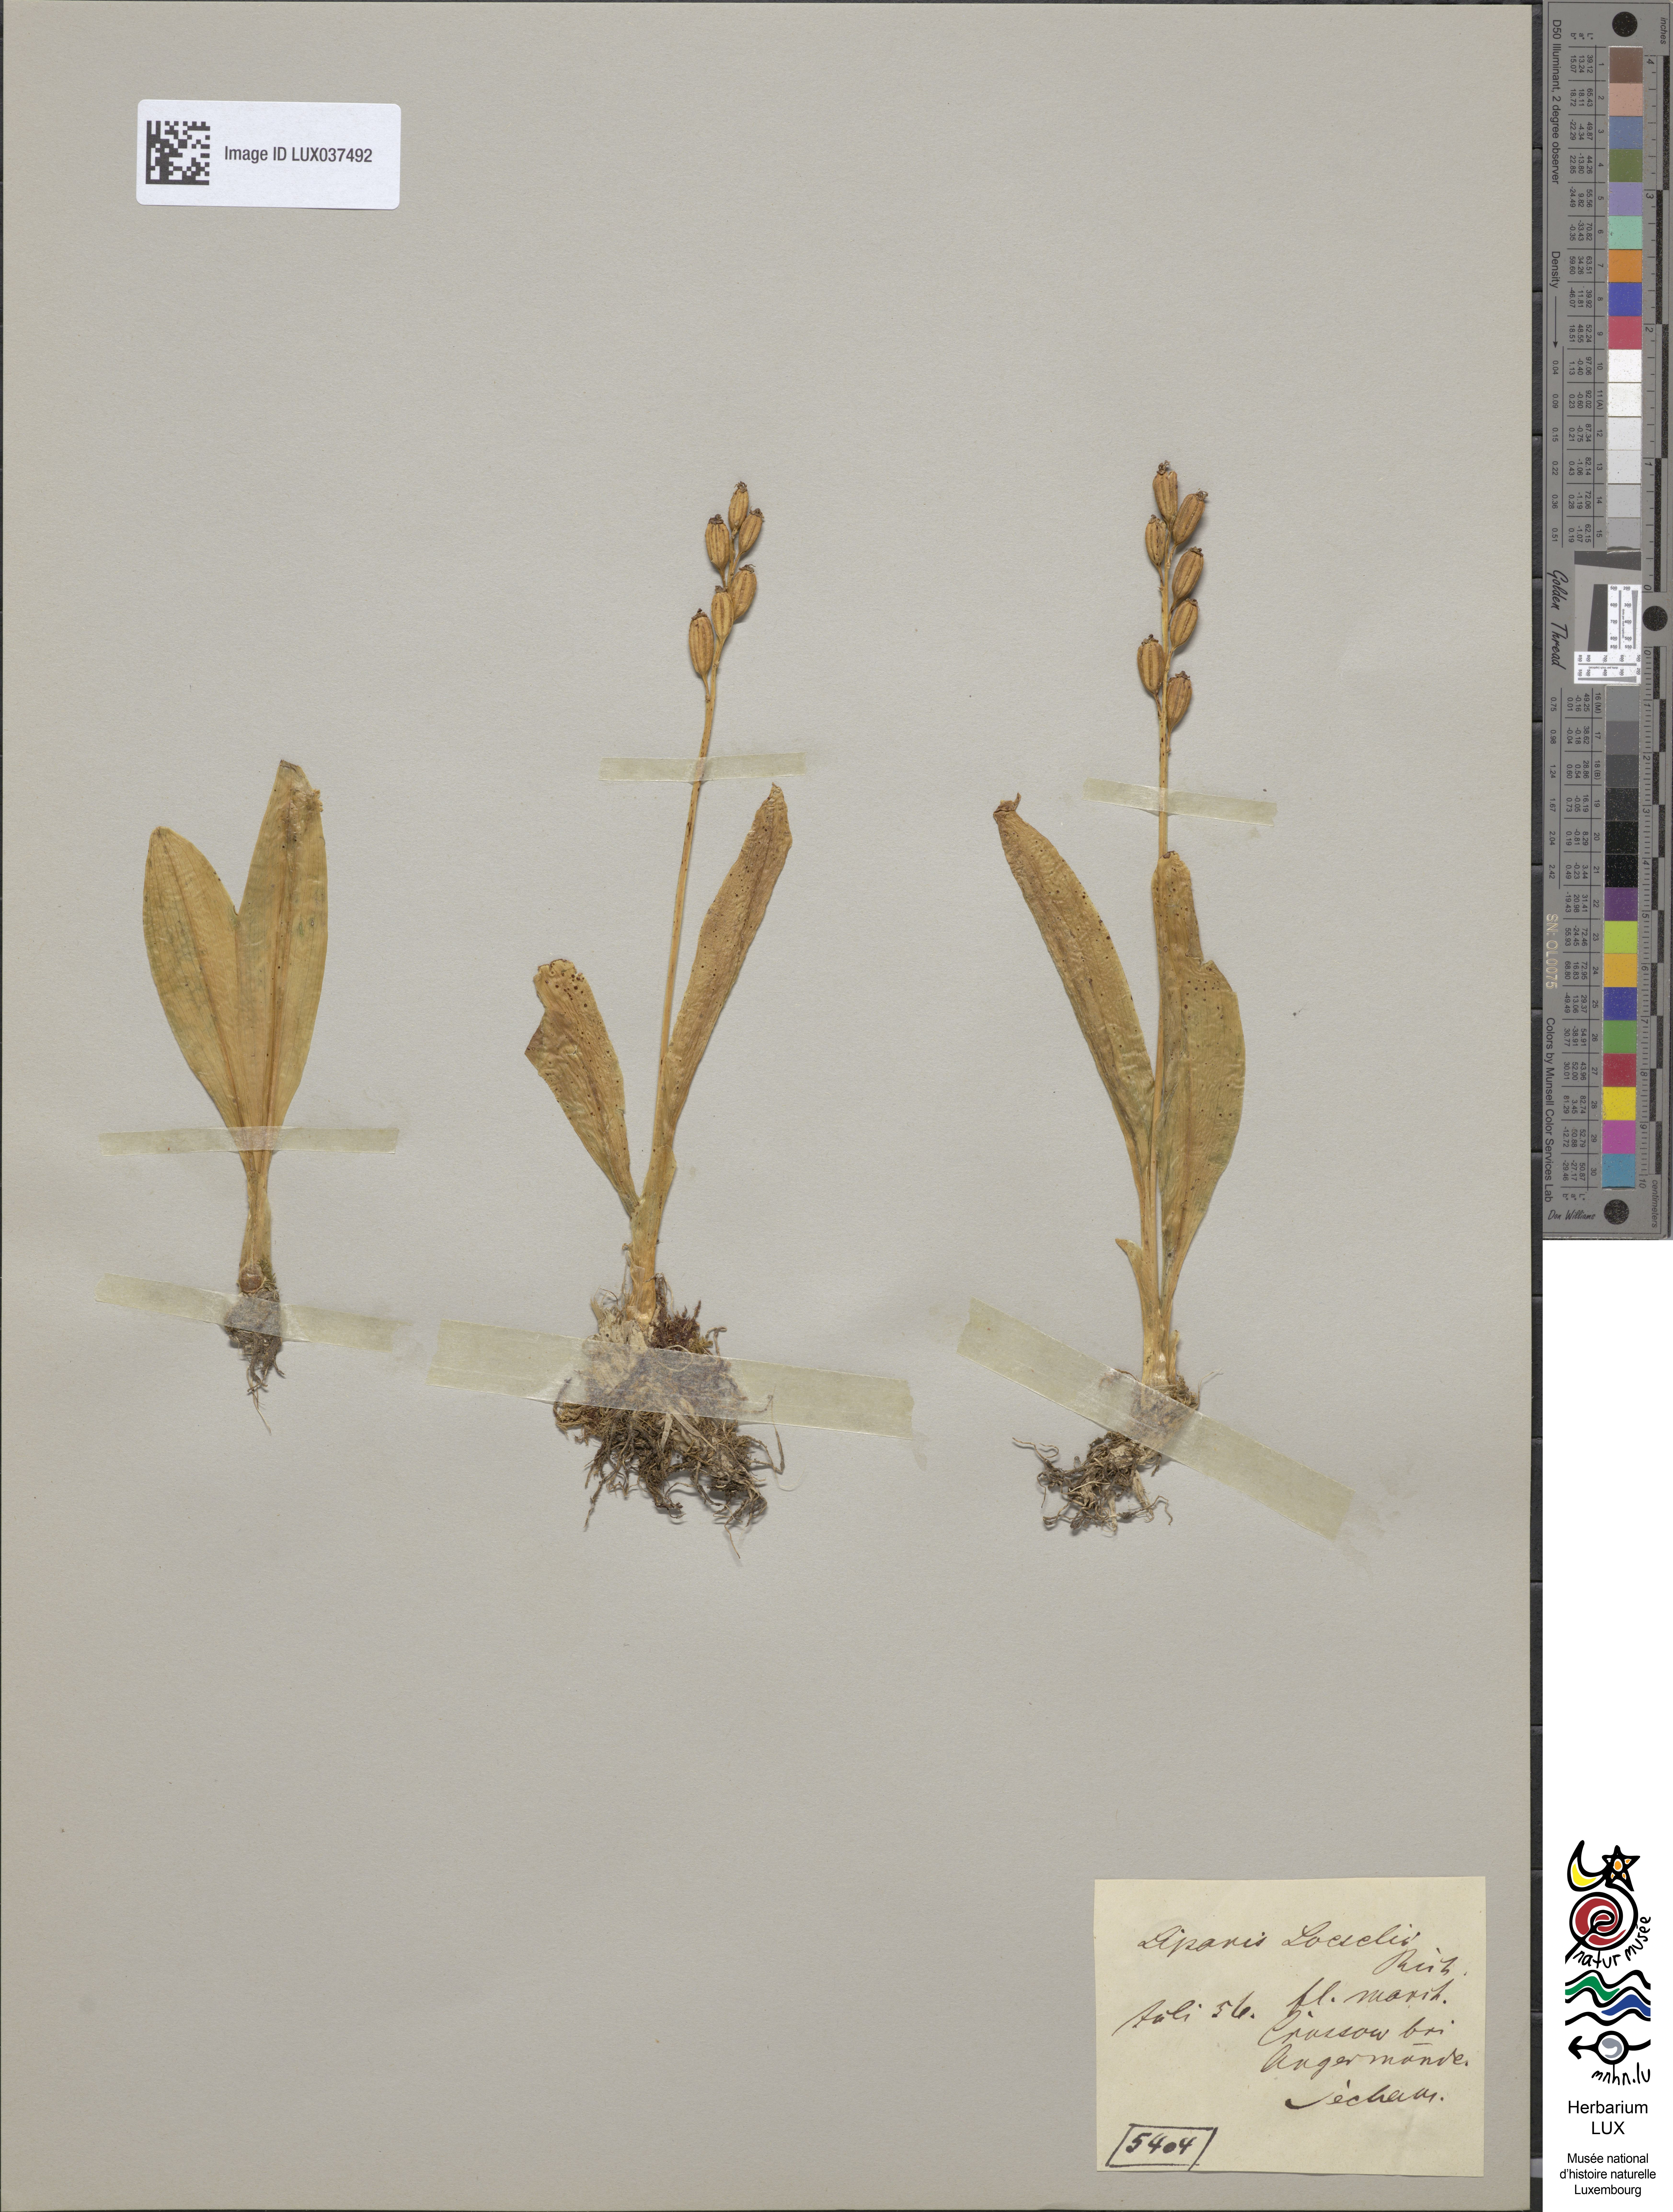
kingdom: Animalia
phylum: Arthropoda
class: Insecta
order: Coleoptera
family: Curculionidae
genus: Liparis
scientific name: Liparis loeselii
